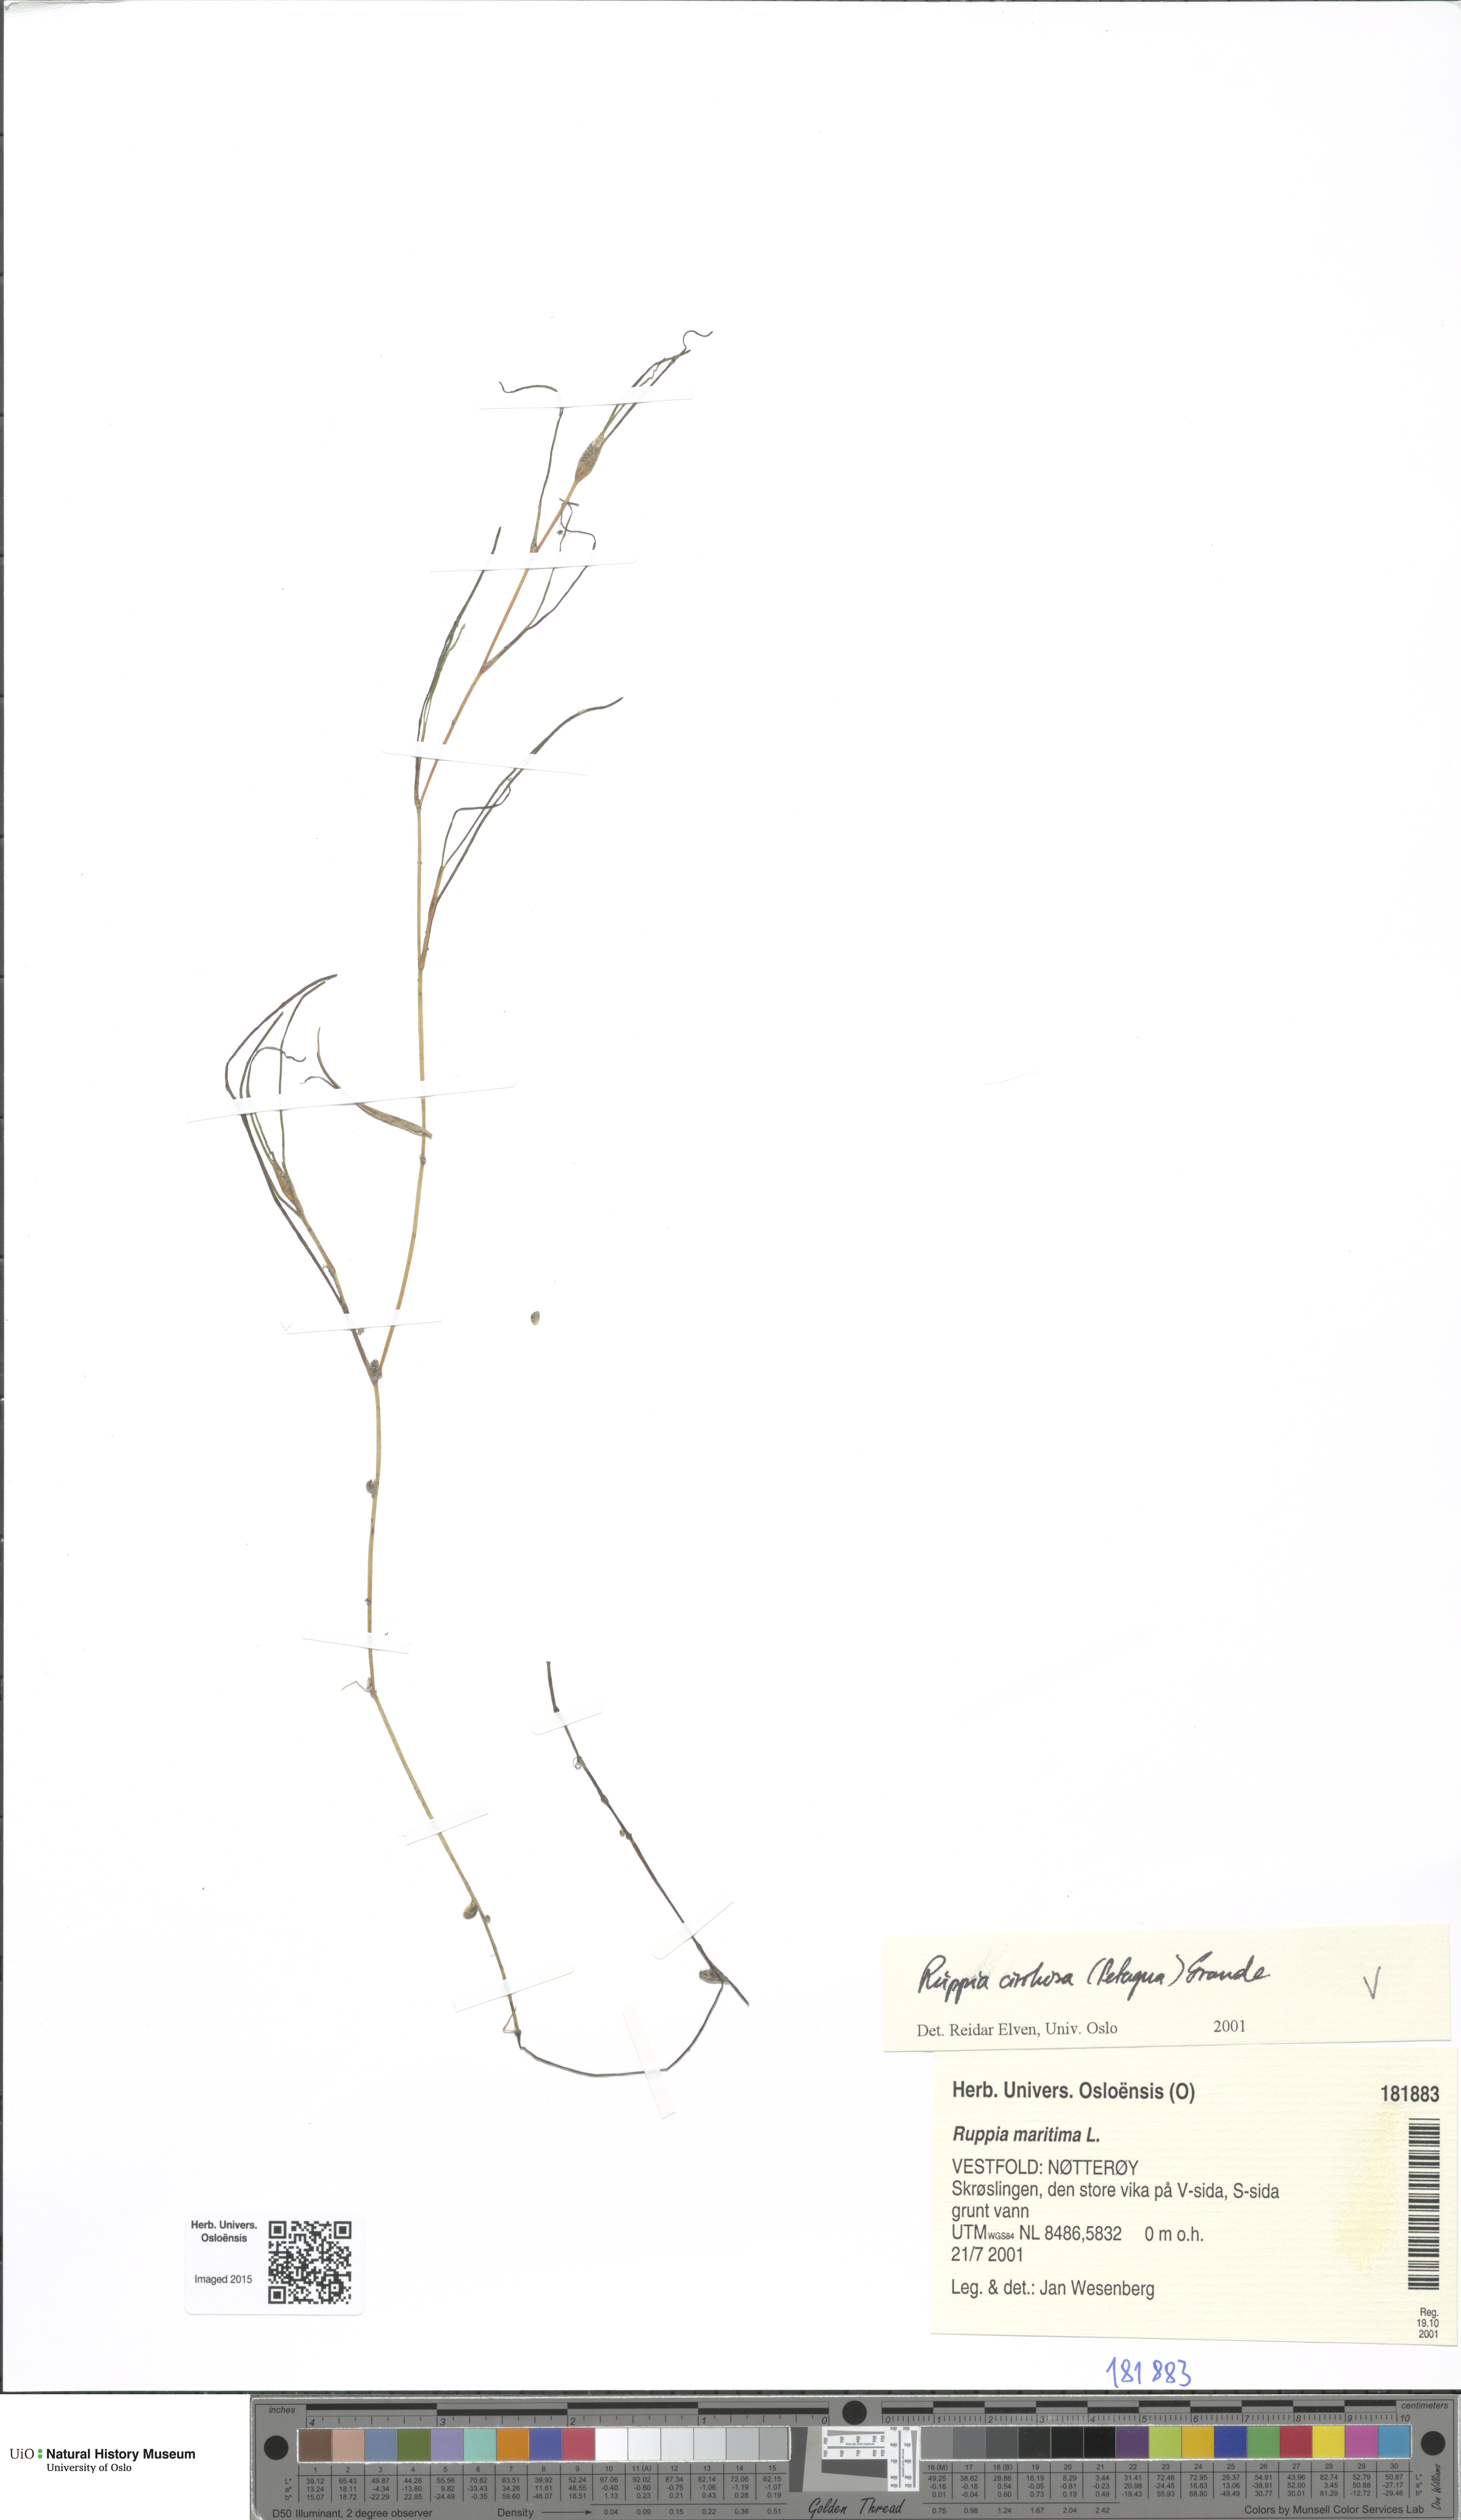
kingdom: Plantae
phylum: Tracheophyta
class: Liliopsida
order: Alismatales
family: Ruppiaceae
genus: Ruppia
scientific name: Ruppia cirrhosa
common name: Spiral tasselweed
